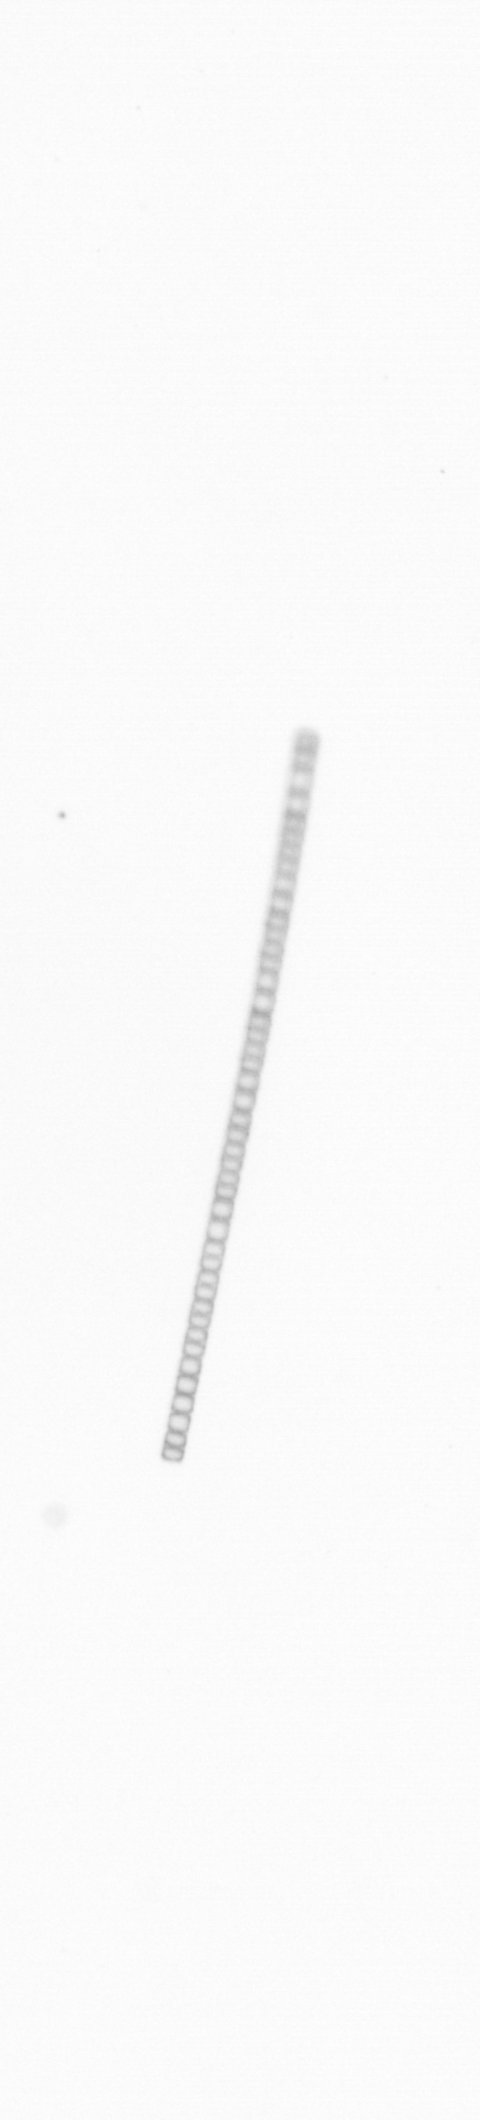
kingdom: Chromista
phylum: Ochrophyta
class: Bacillariophyceae
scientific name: Bacillariophyceae
